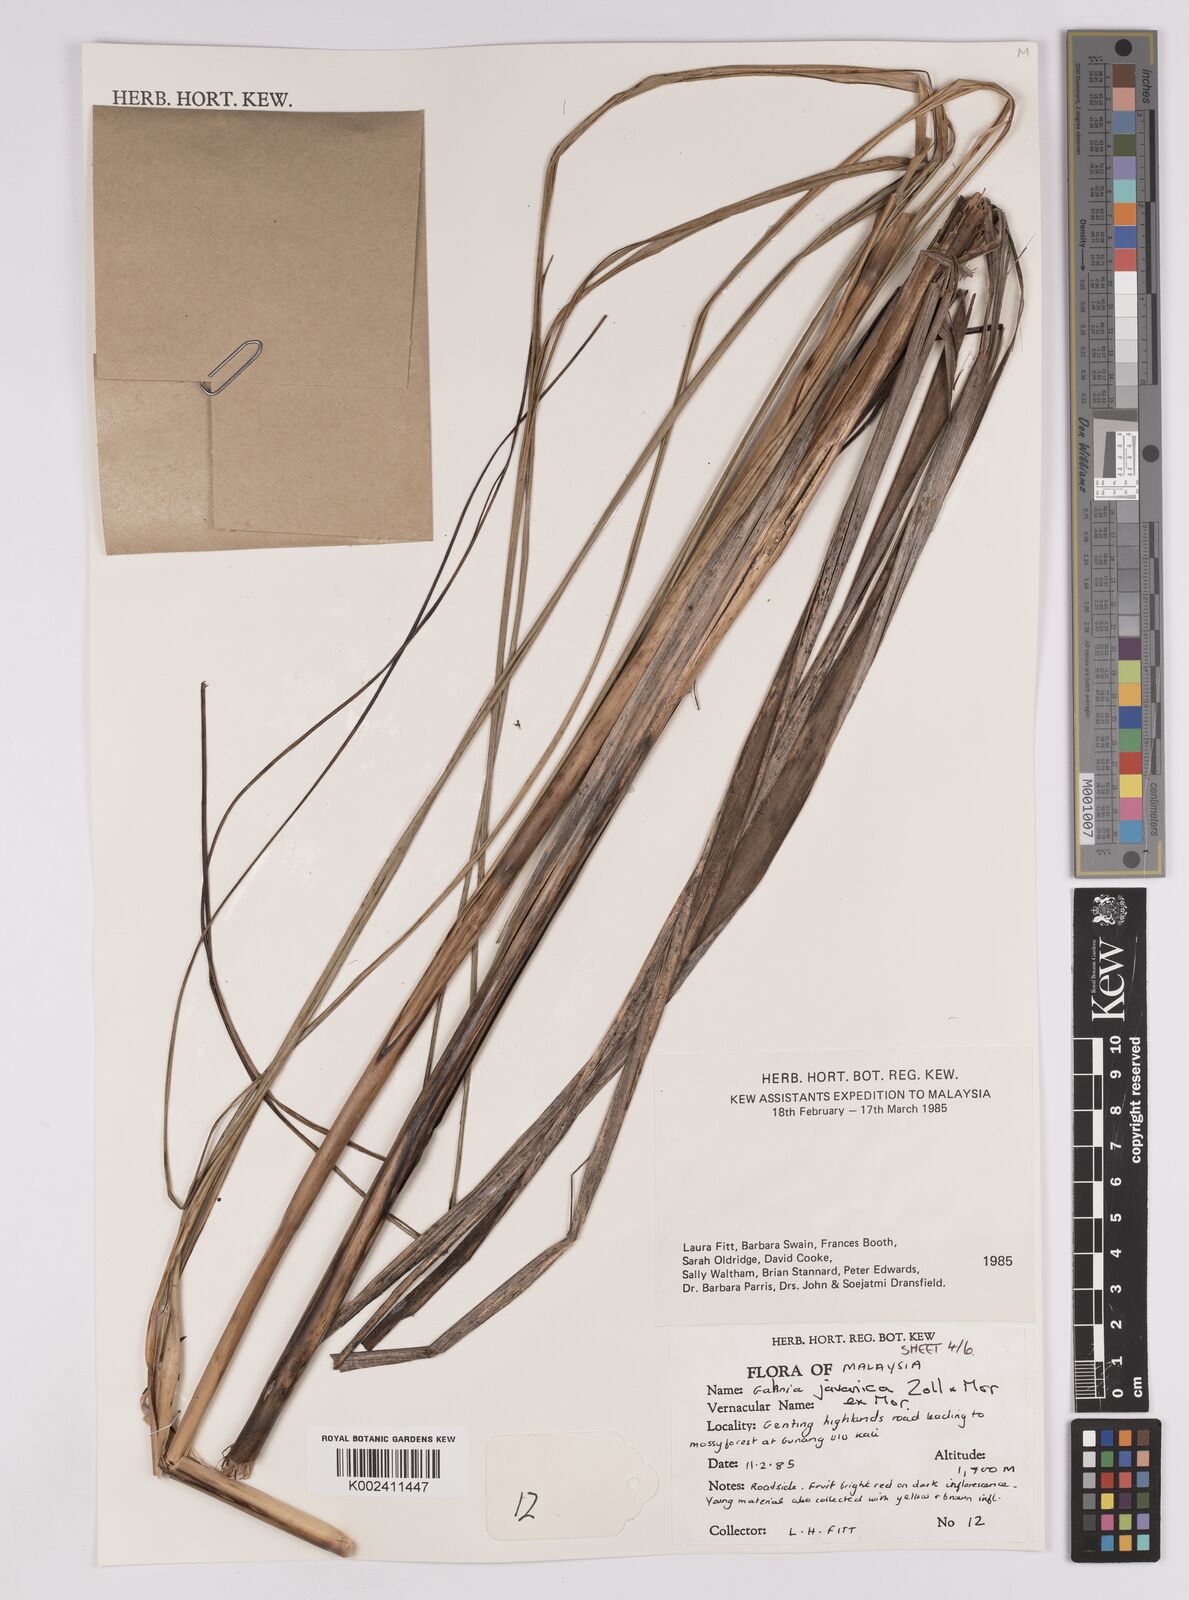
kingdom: Plantae
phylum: Tracheophyta
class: Liliopsida
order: Poales
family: Cyperaceae
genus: Gahnia
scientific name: Gahnia javanica
